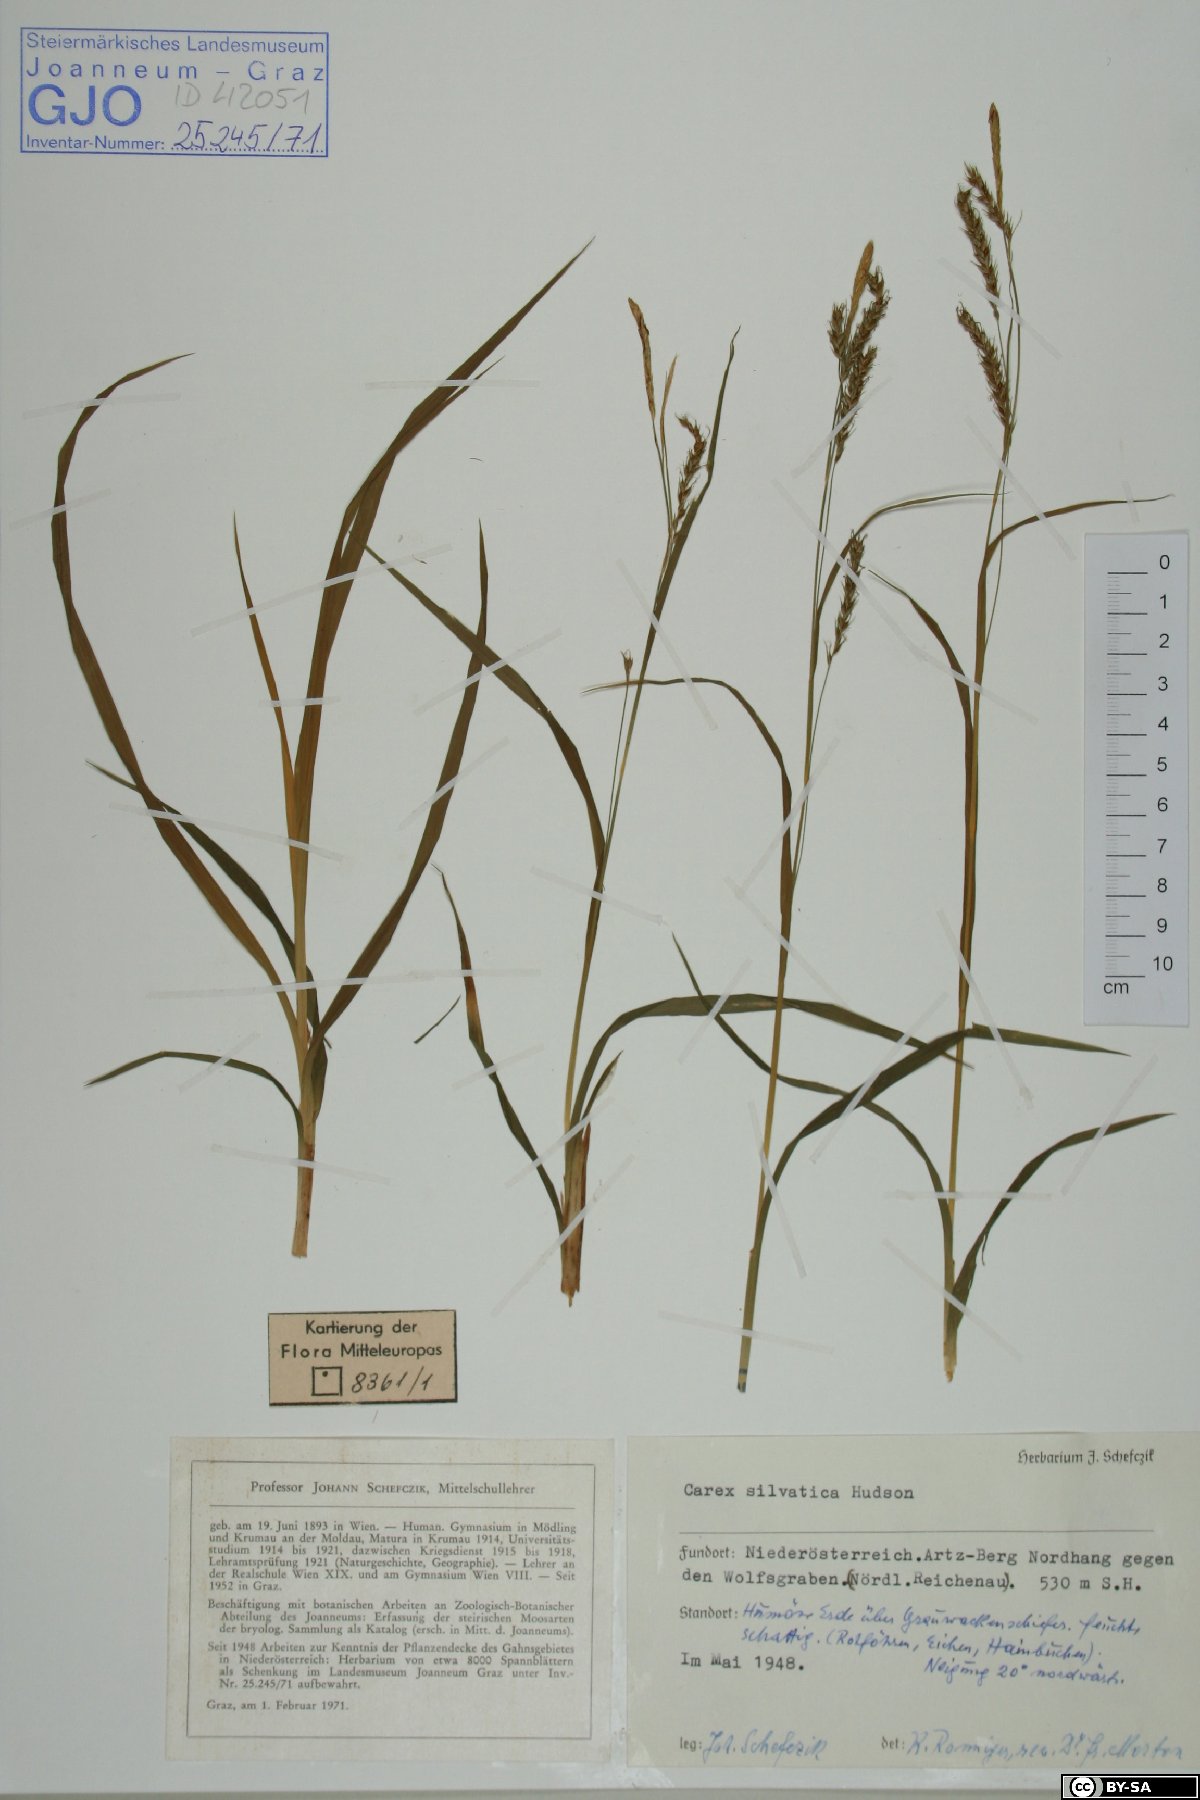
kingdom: Plantae
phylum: Tracheophyta
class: Liliopsida
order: Poales
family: Cyperaceae
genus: Carex
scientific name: Carex sylvatica
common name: Wood-sedge
